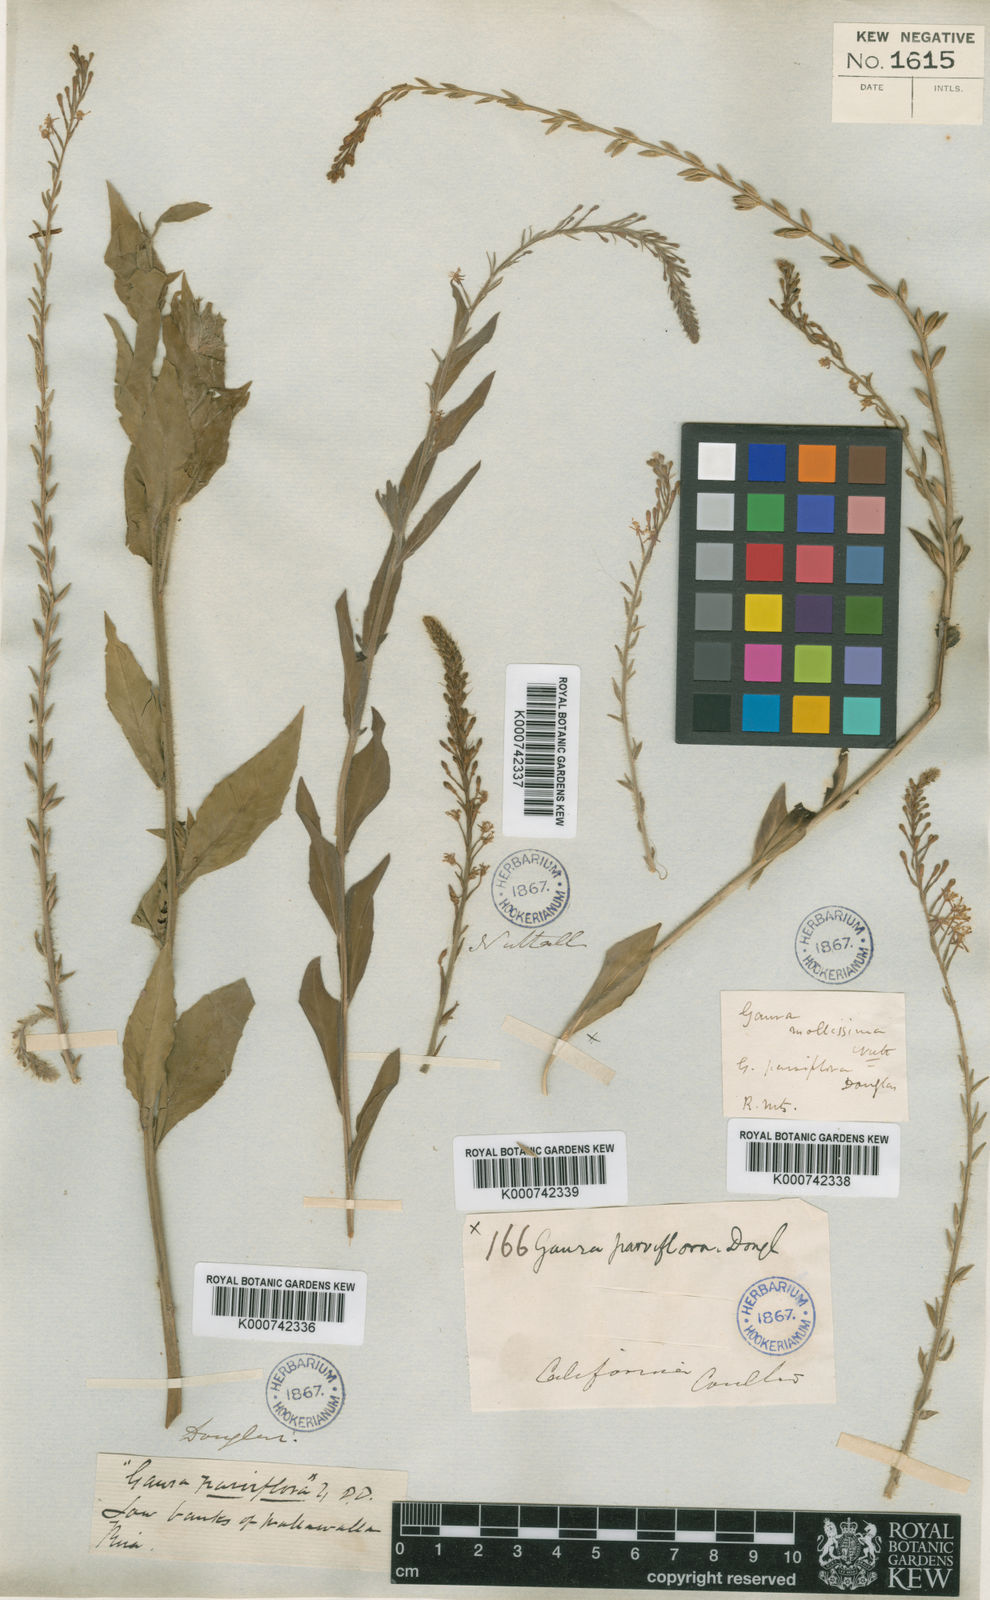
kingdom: Plantae
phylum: Tracheophyta
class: Magnoliopsida
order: Myrtales
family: Onagraceae
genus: Oenothera
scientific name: Oenothera
